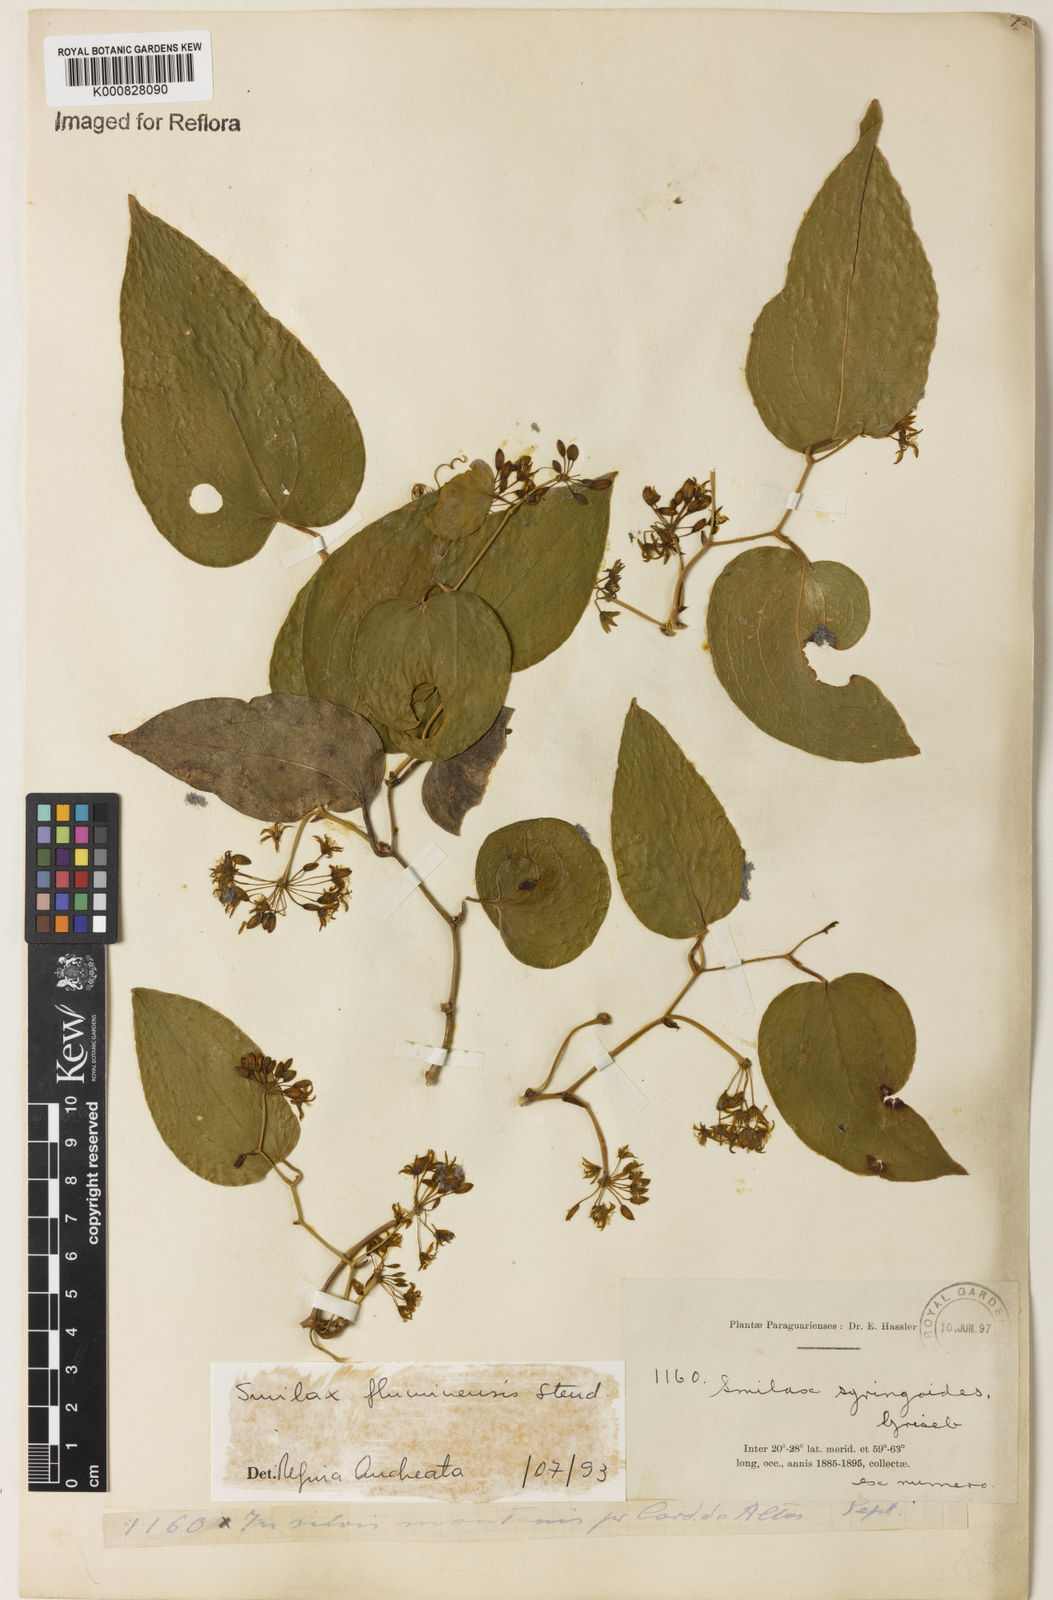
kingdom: Plantae
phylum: Tracheophyta
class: Liliopsida
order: Liliales
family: Smilacaceae
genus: Smilax
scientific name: Smilax fluminensis
